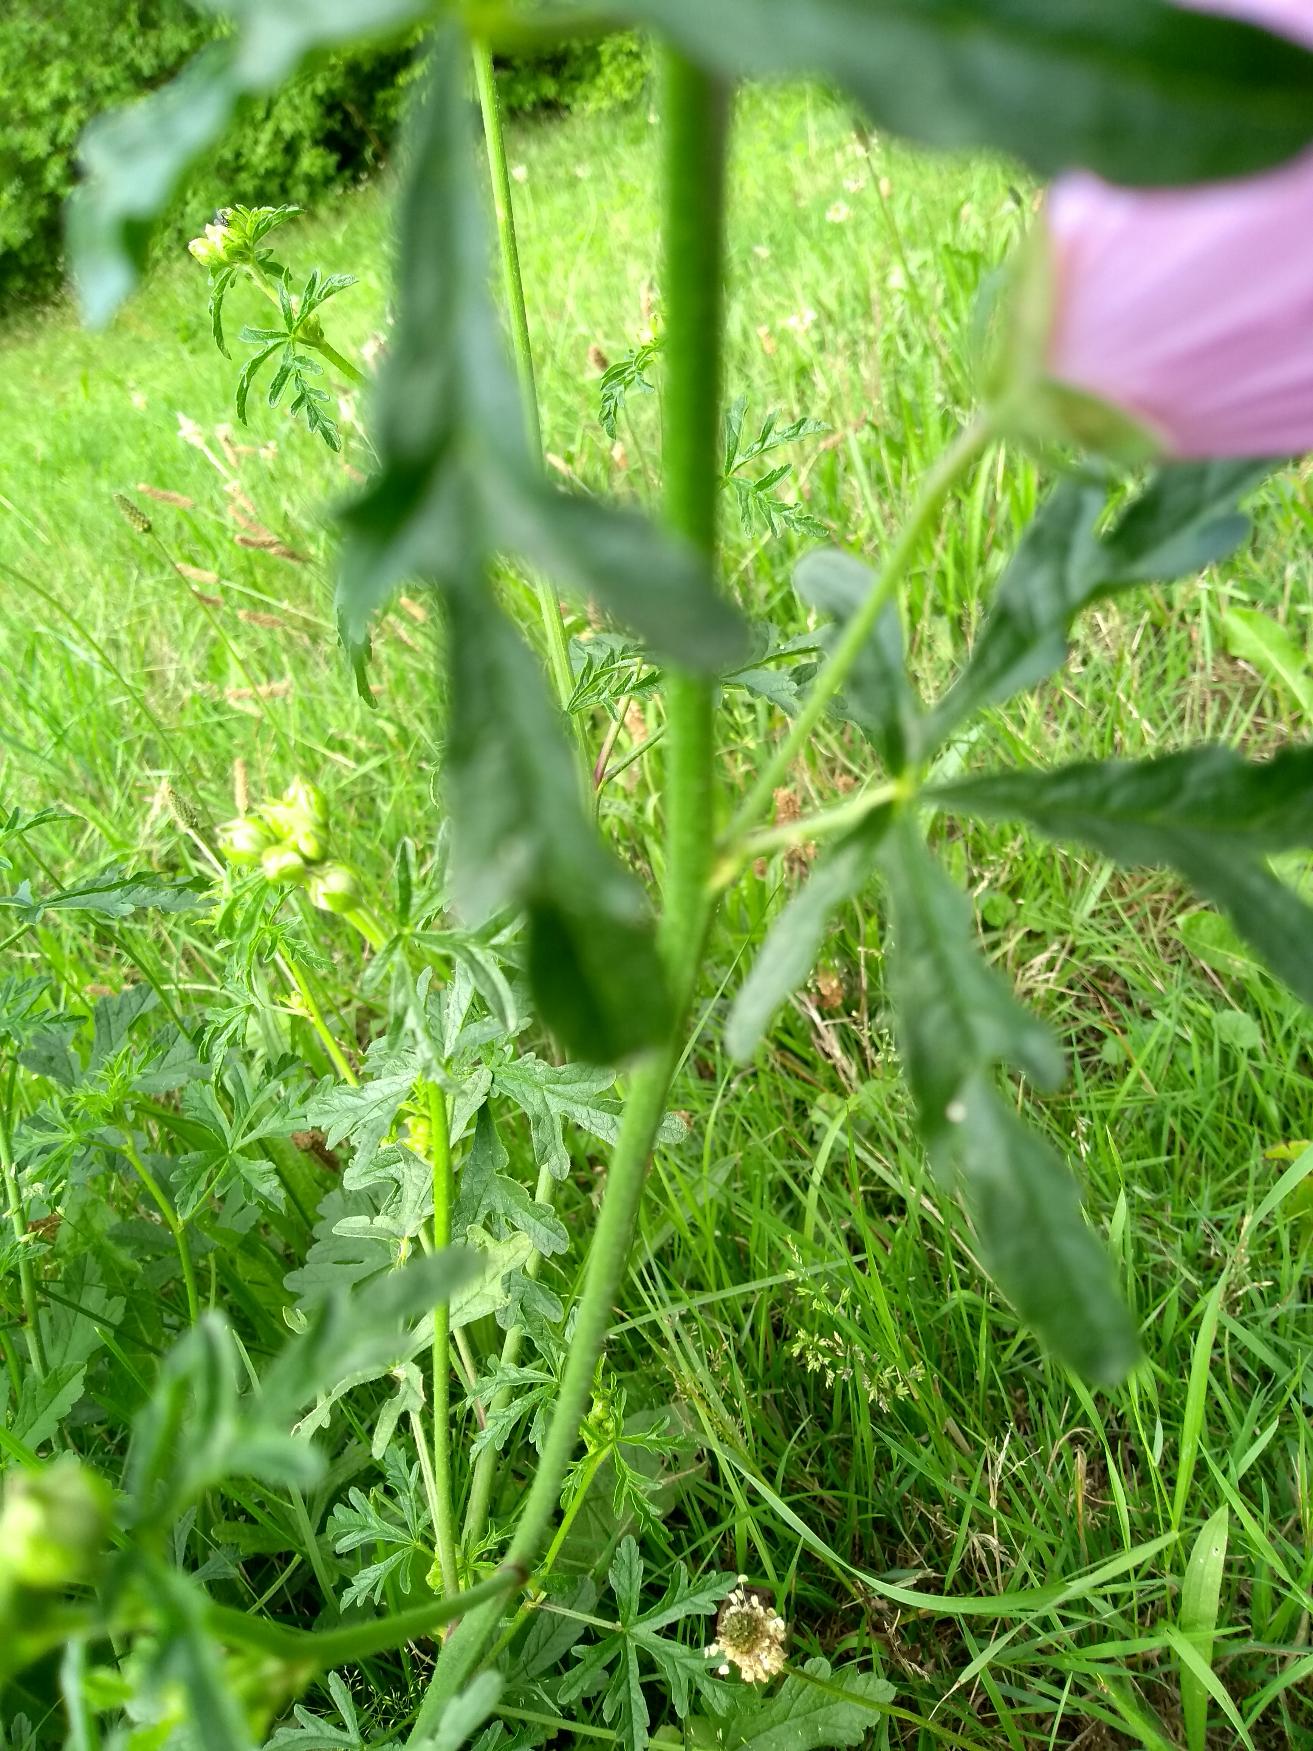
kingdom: Plantae
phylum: Tracheophyta
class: Magnoliopsida
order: Malvales
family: Malvaceae
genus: Malva
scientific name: Malva alcea
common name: Rosen-katost
